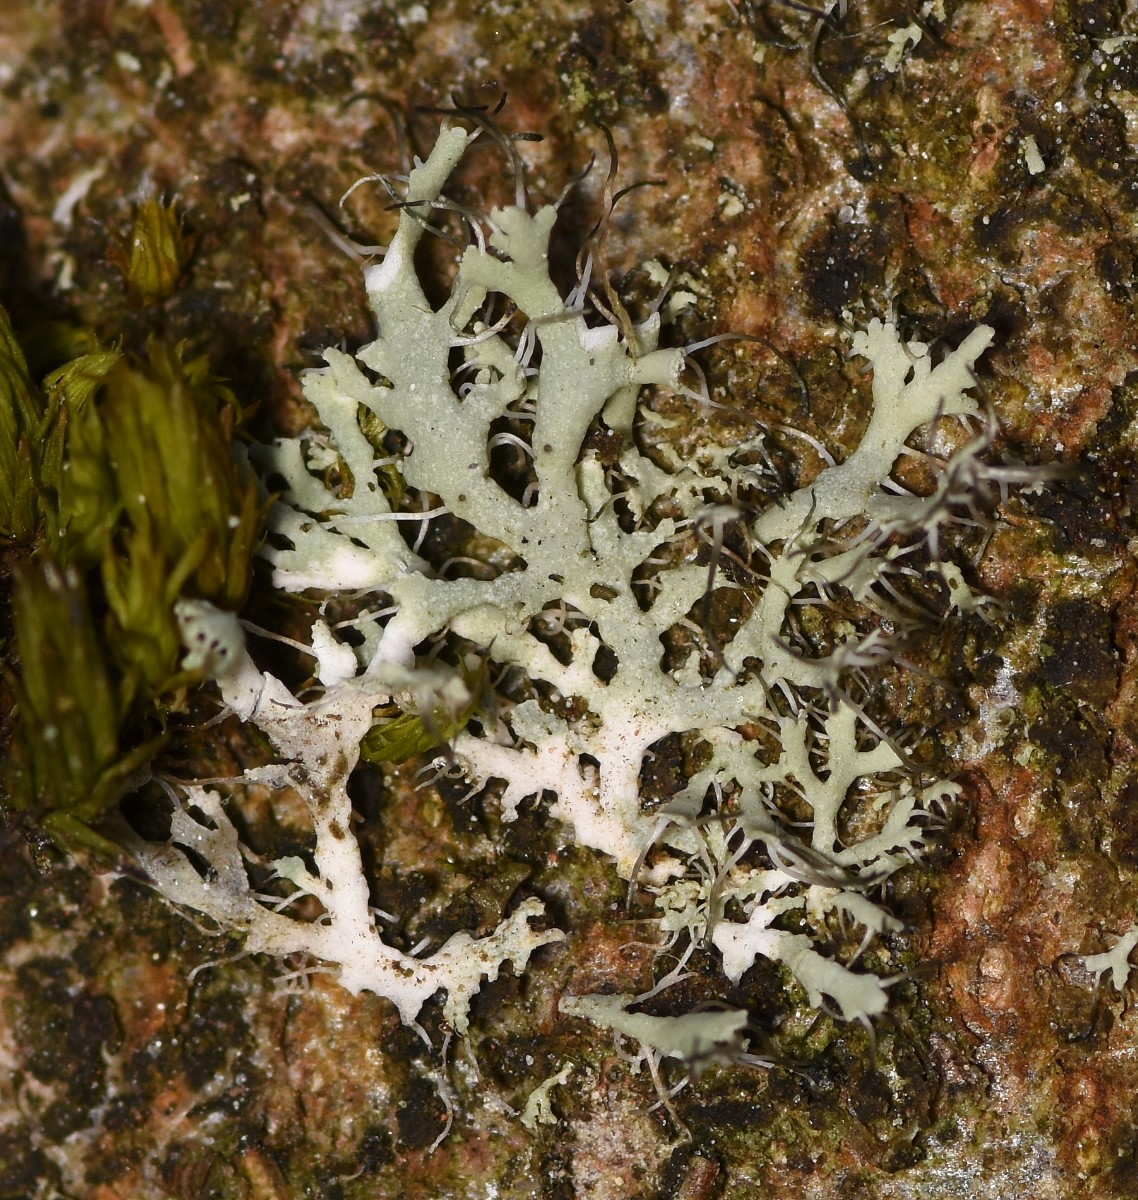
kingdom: Fungi
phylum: Ascomycota
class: Lecanoromycetes
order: Caliciales
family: Physciaceae
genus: Physcia
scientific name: Physcia tenella
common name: spæd rosetlav
